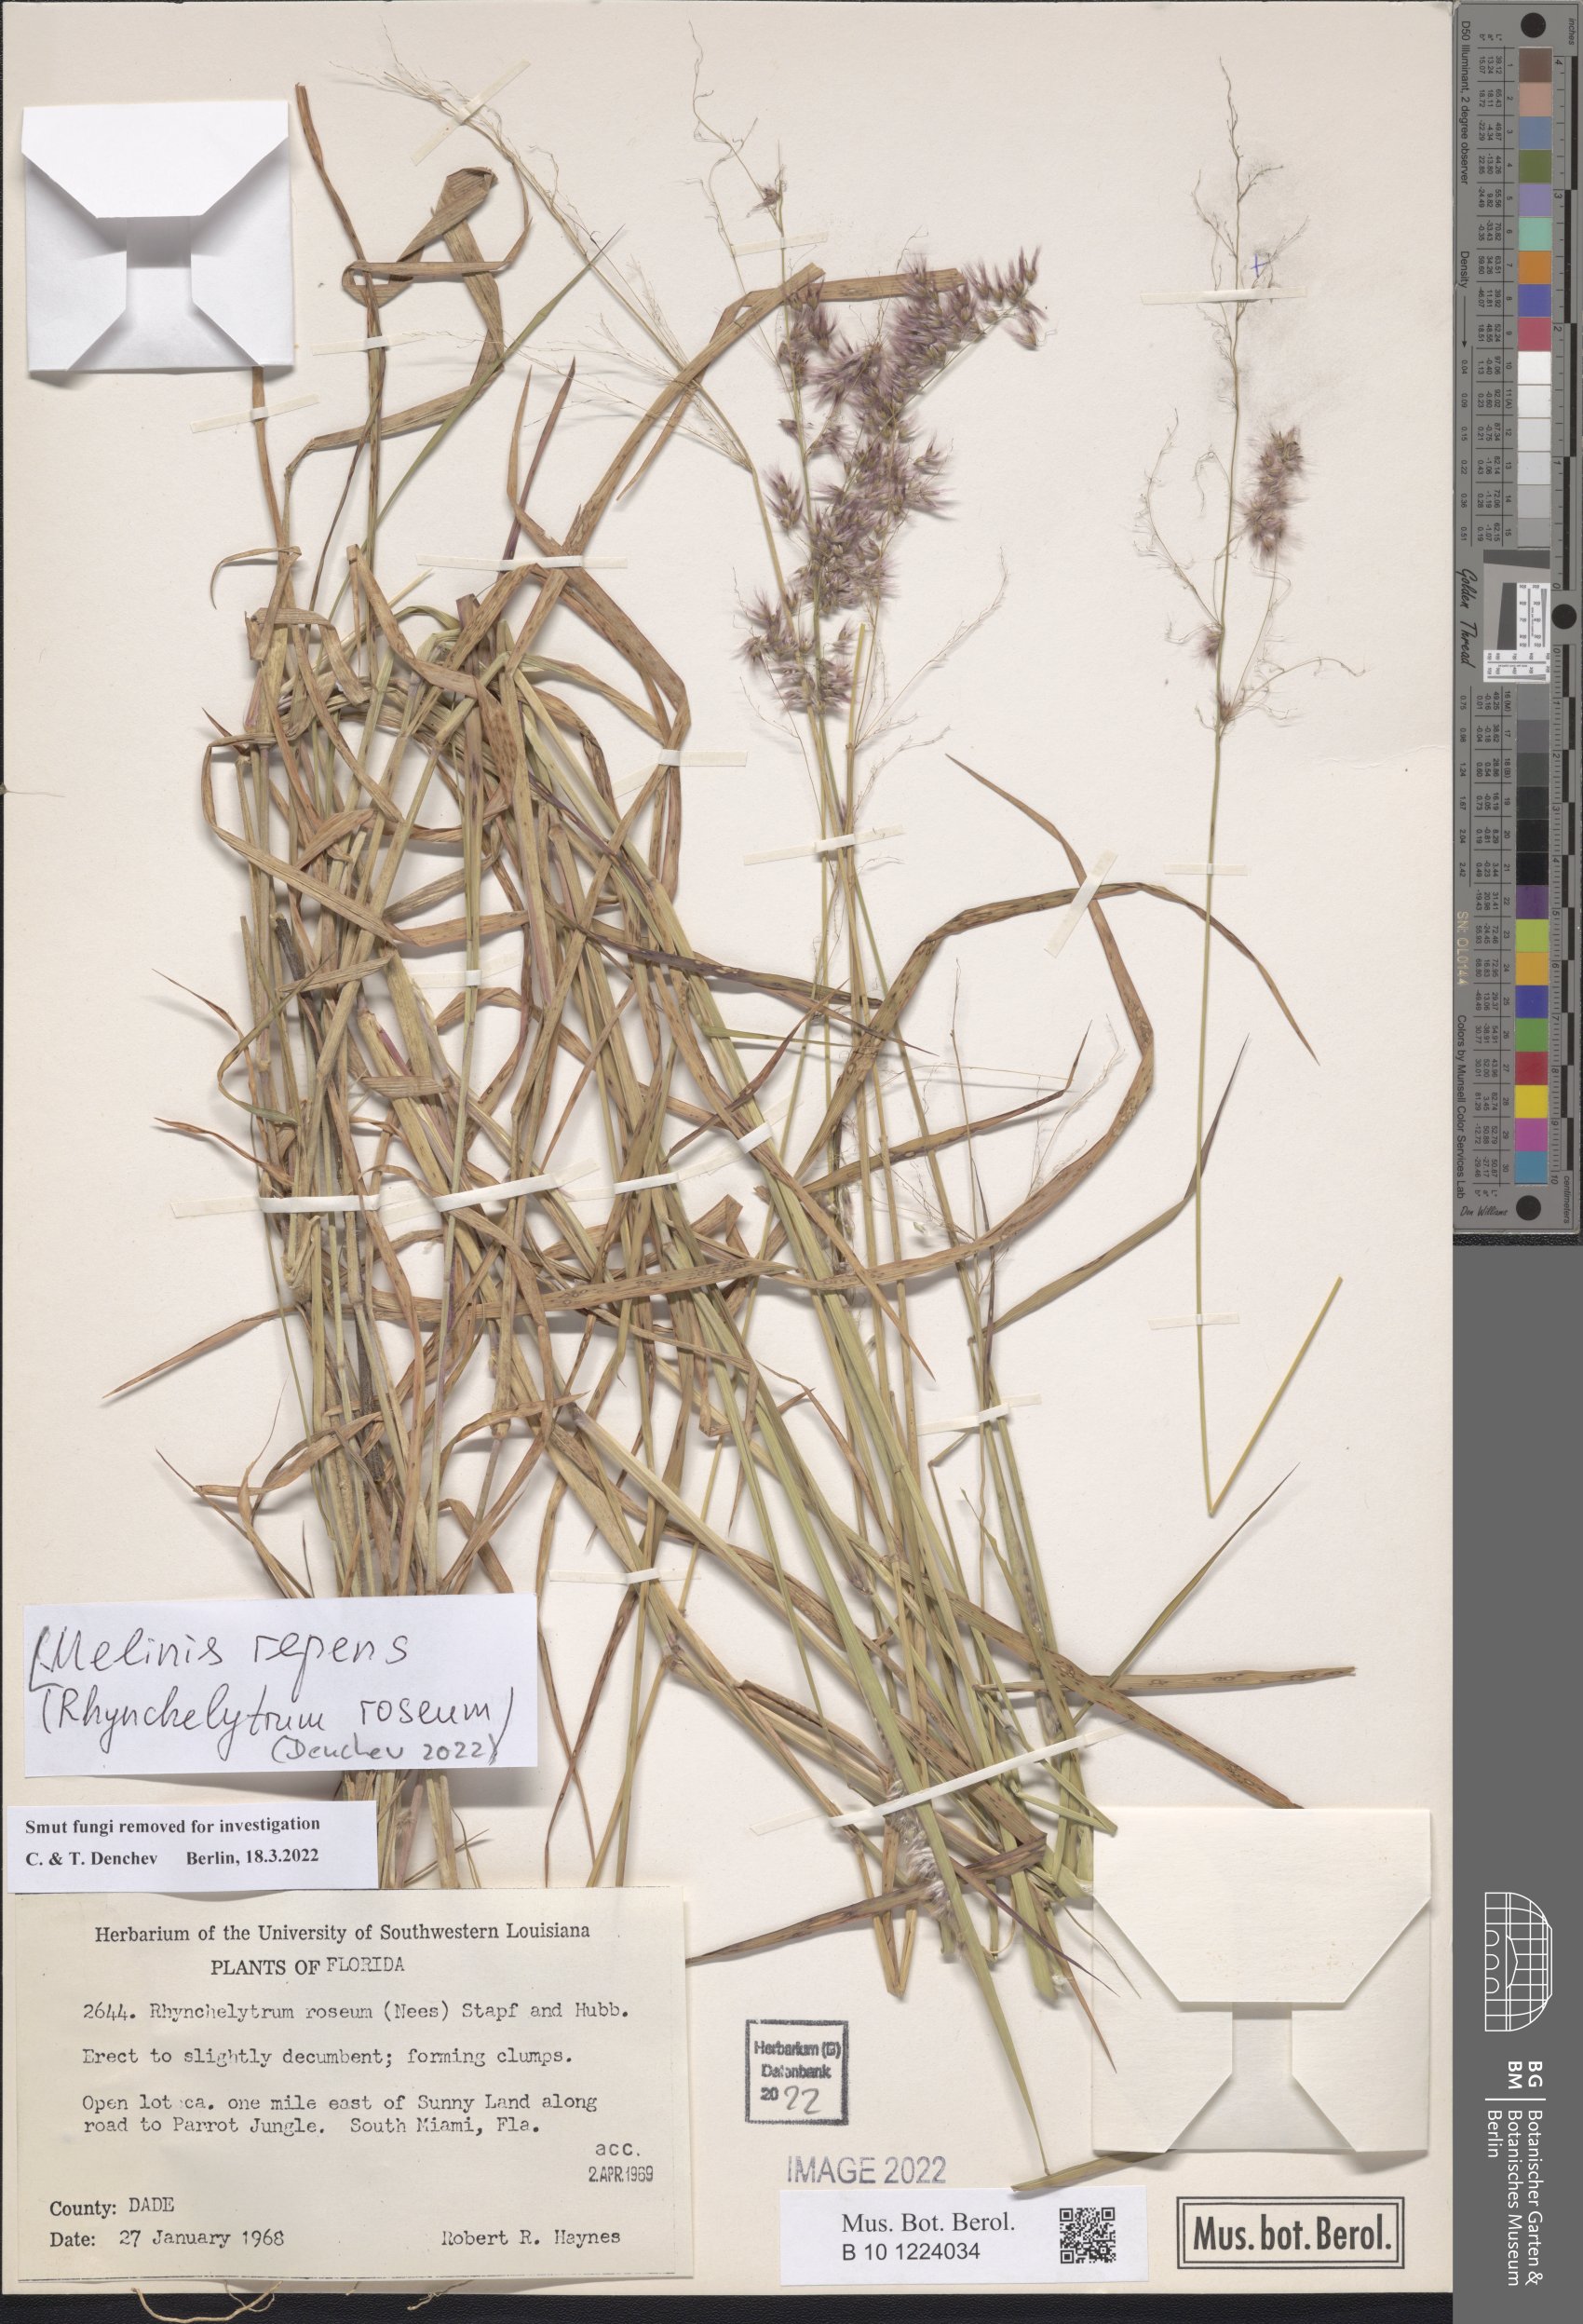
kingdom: Plantae
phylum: Tracheophyta
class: Liliopsida
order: Poales
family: Poaceae
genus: Melinis
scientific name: Melinis repens
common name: Rose natal grass
